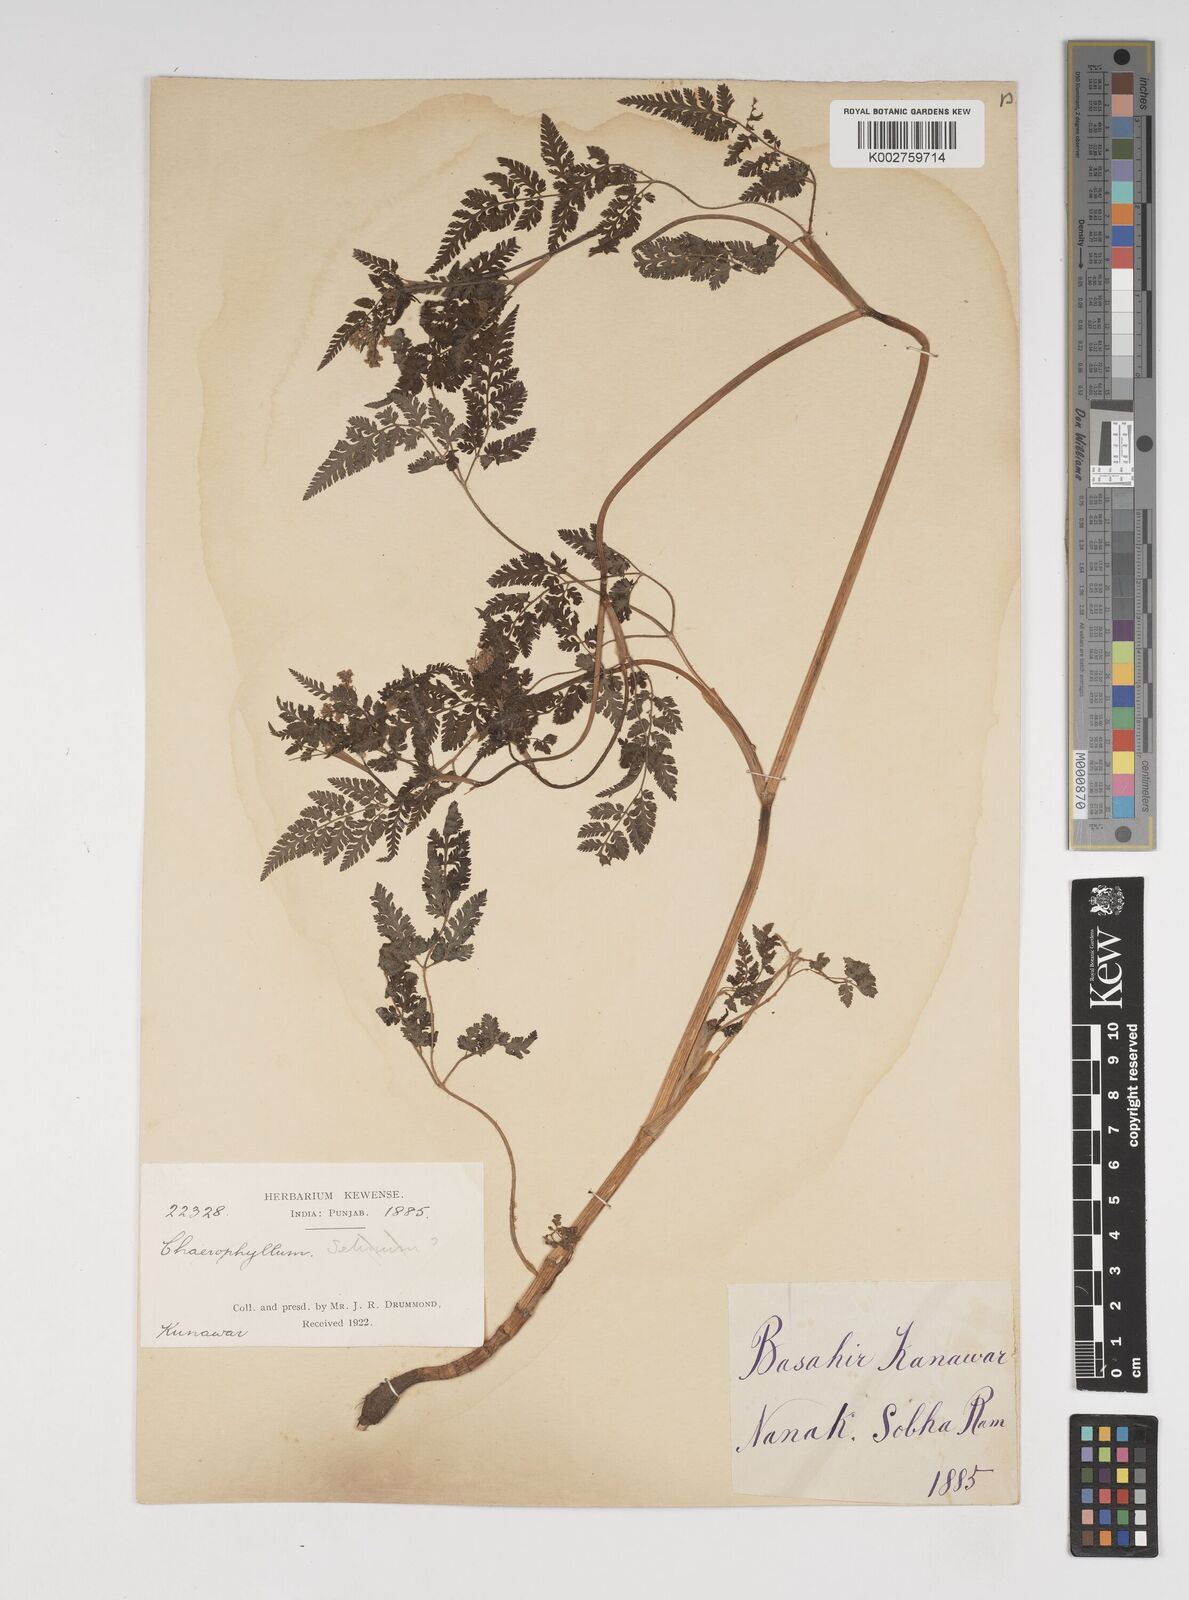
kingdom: Plantae
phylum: Tracheophyta
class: Magnoliopsida
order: Apiales
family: Apiaceae
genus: Selinum
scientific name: Selinum
